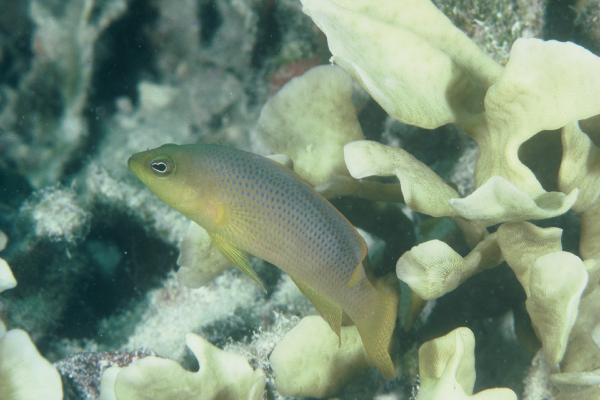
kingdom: Animalia
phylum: Chordata
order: Perciformes
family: Pseudochromidae
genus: Pseudochromis
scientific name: Pseudochromis fuscus
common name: Brown dottyback
